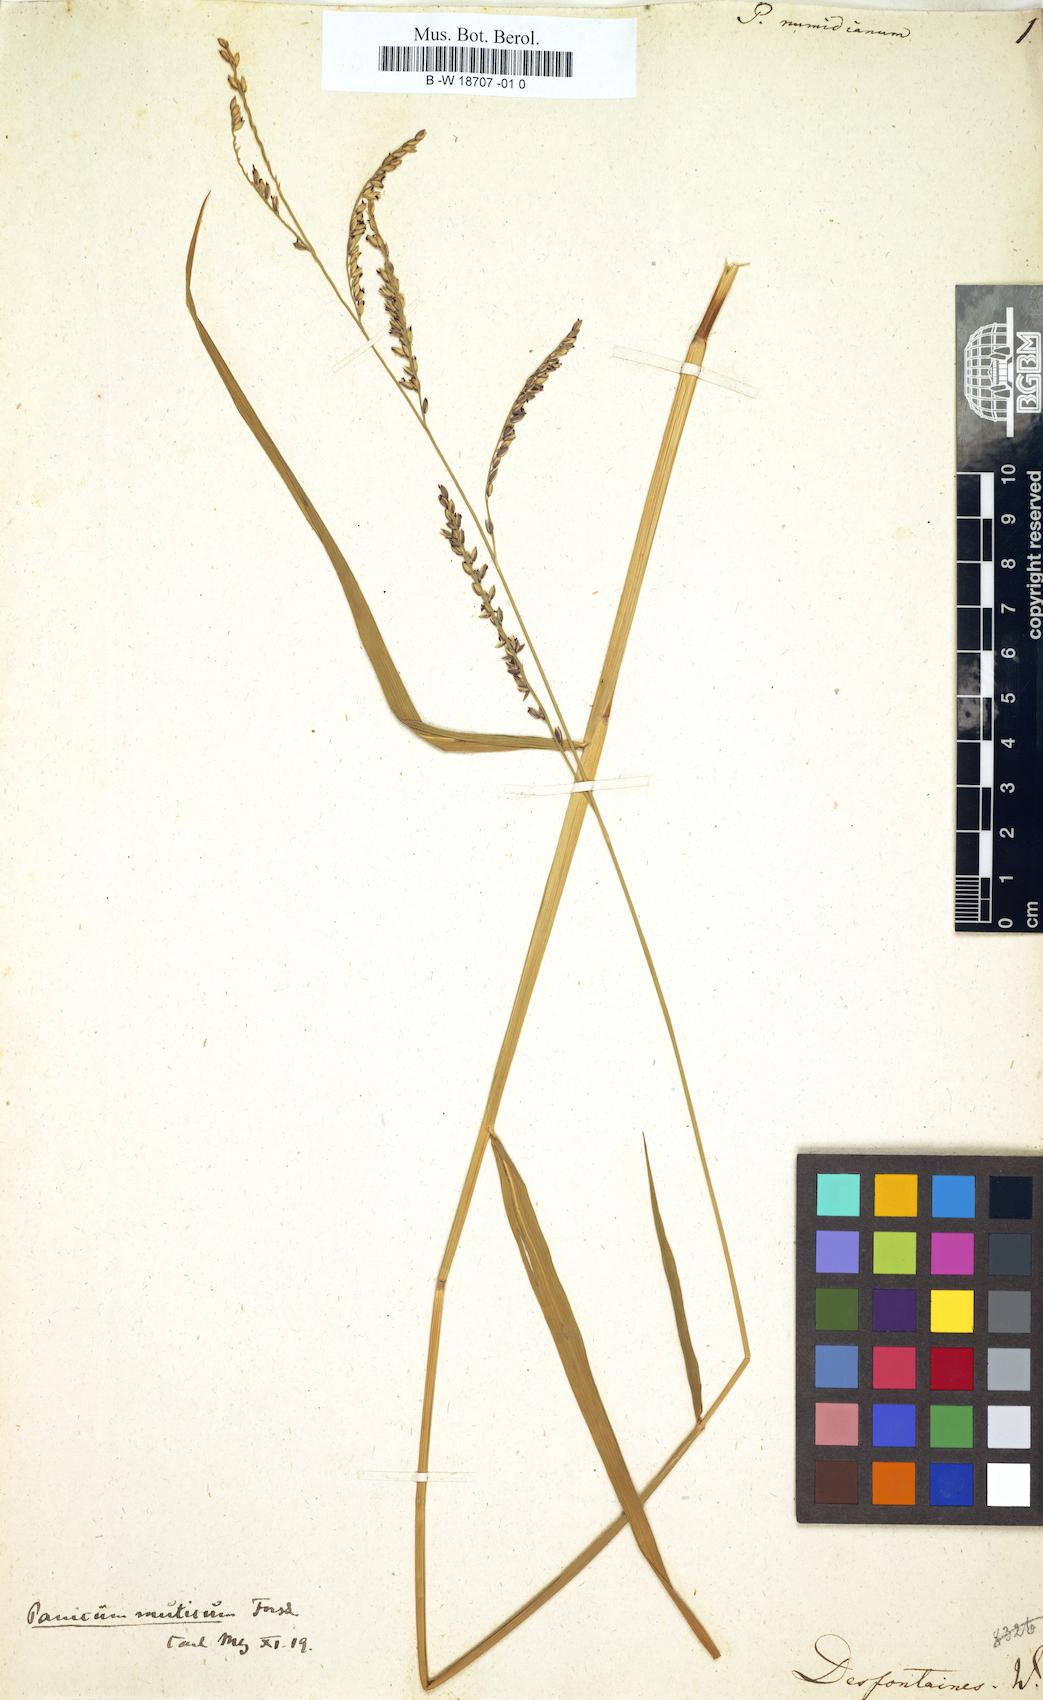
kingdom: Plantae
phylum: Tracheophyta
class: Liliopsida
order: Poales
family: Poaceae
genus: Panicum
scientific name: Panicum numidianum
